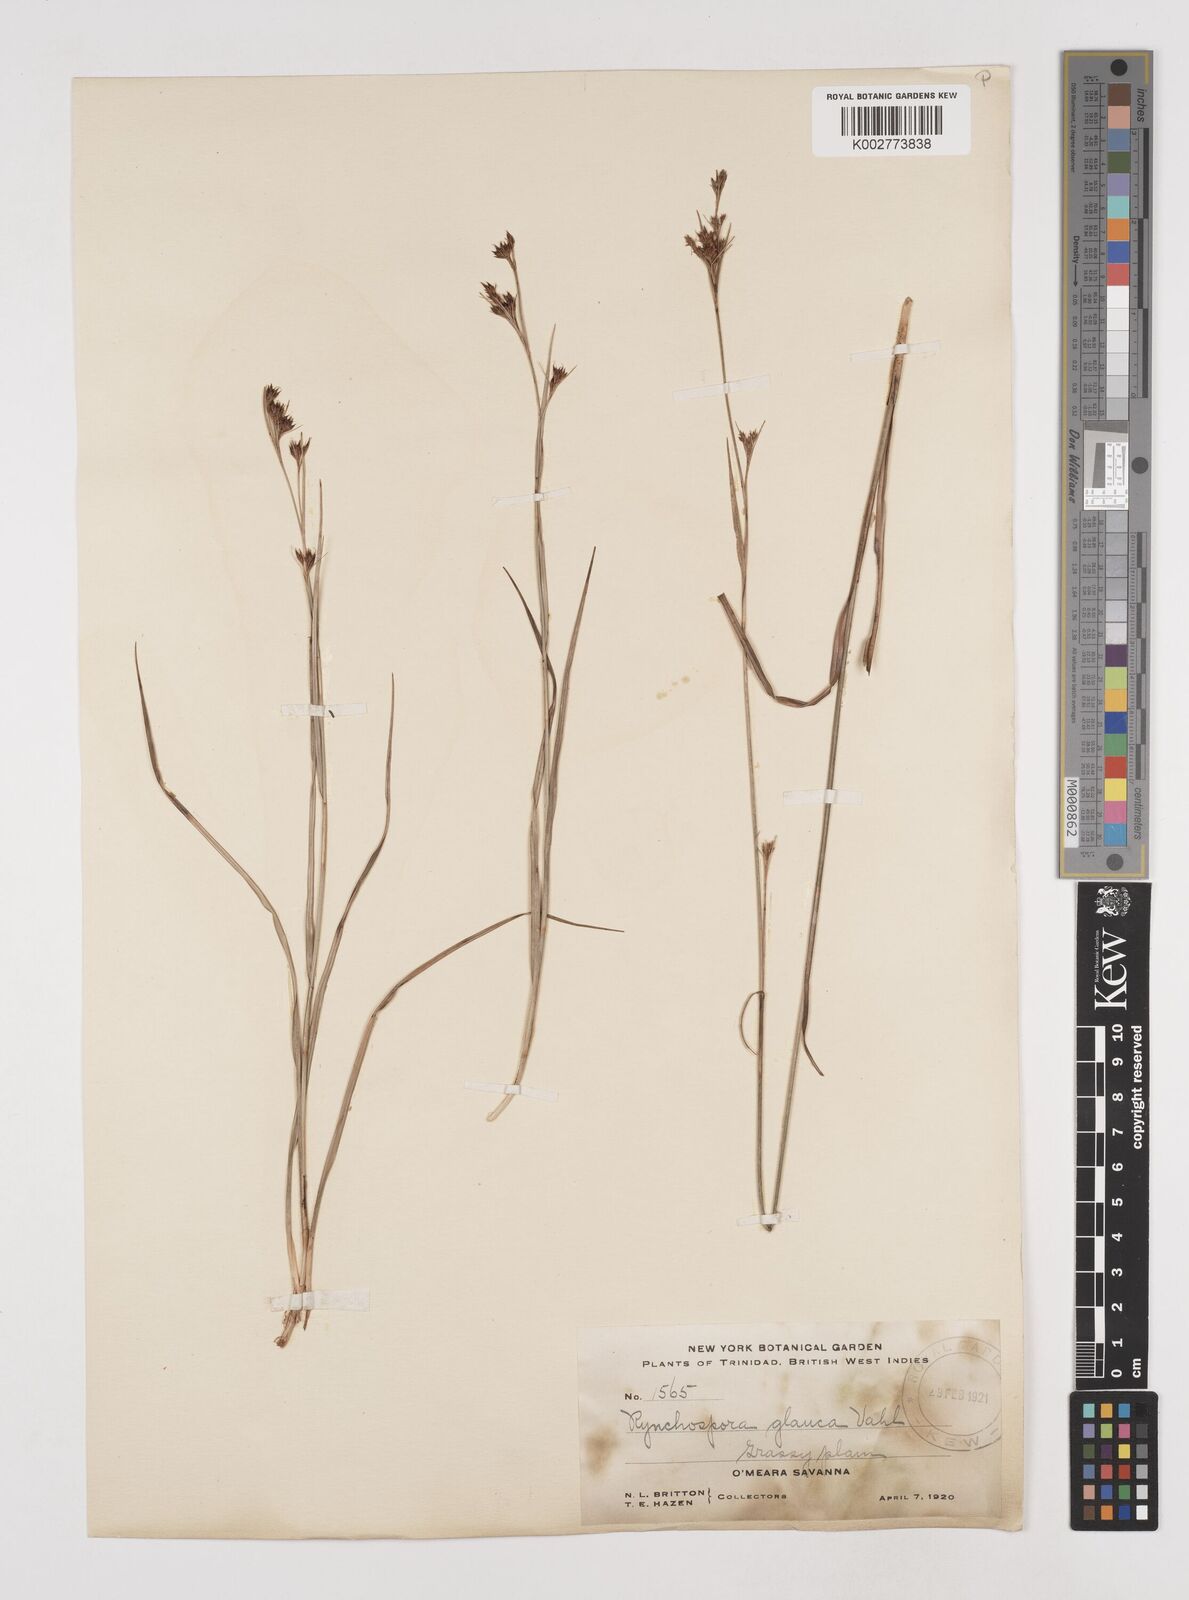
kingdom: Plantae
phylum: Tracheophyta
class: Liliopsida
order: Poales
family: Cyperaceae
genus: Rhynchospora
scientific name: Rhynchospora rugosa
